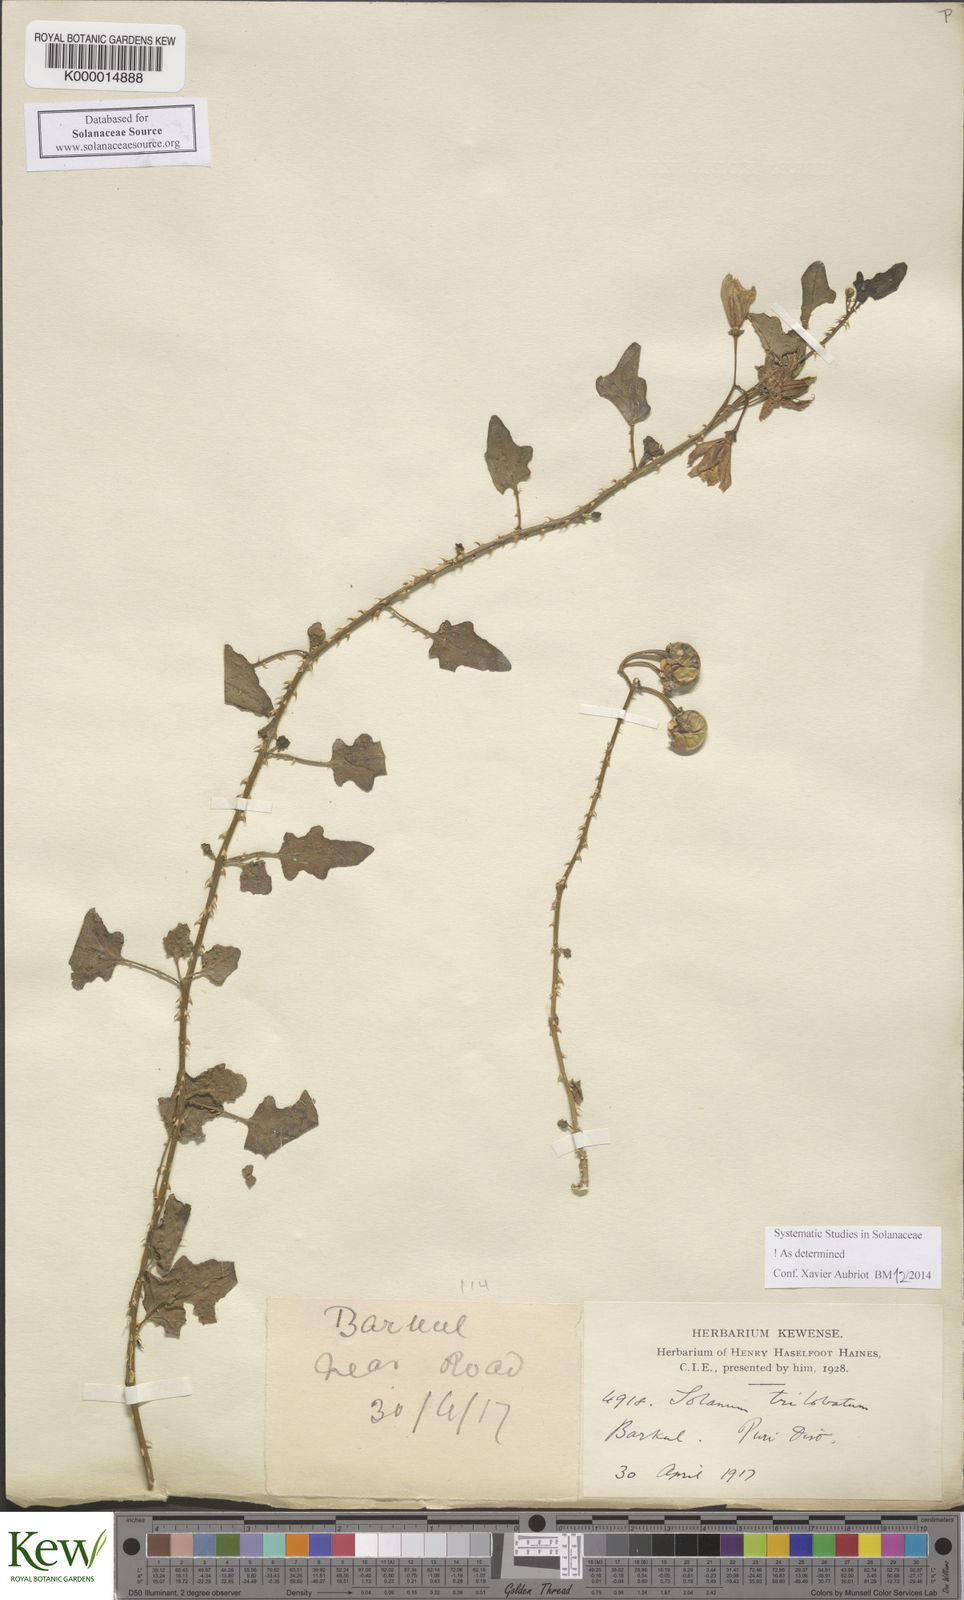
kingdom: Plantae
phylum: Tracheophyta
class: Magnoliopsida
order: Solanales
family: Solanaceae
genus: Solanum
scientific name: Solanum trilobatum
